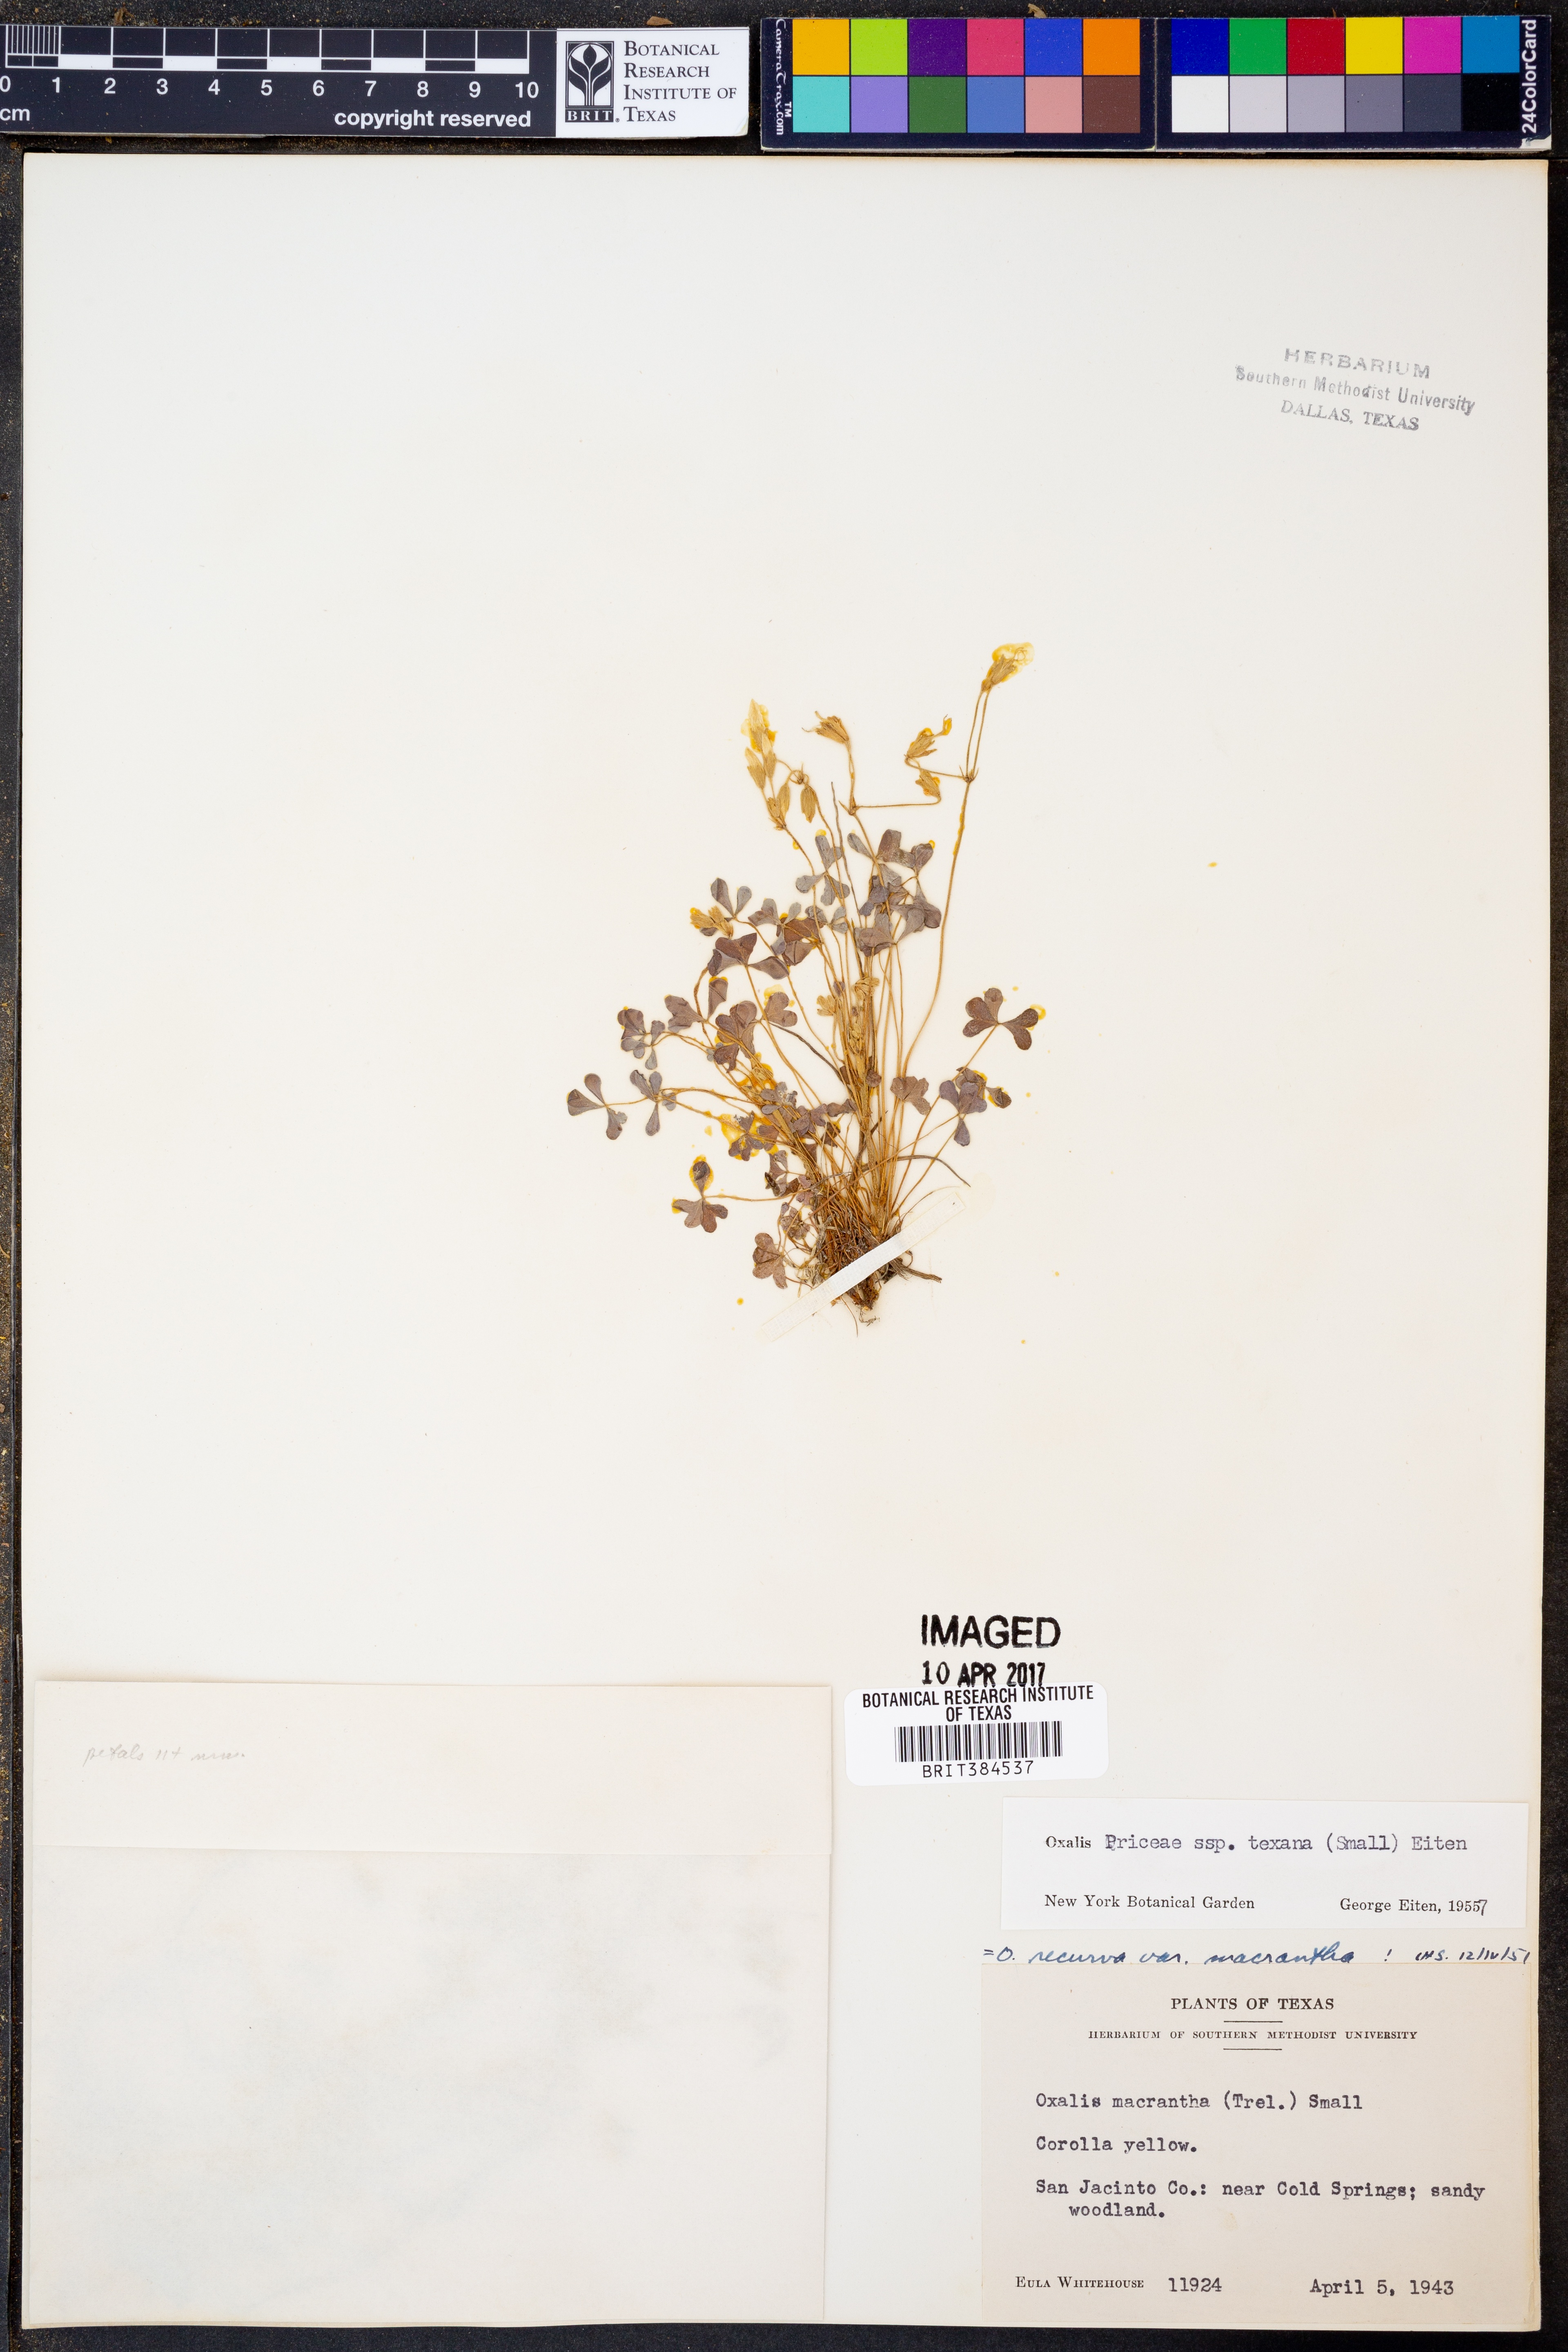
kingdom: Plantae
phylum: Tracheophyta
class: Magnoliopsida
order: Oxalidales
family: Oxalidaceae
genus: Oxalis
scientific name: Oxalis texana
